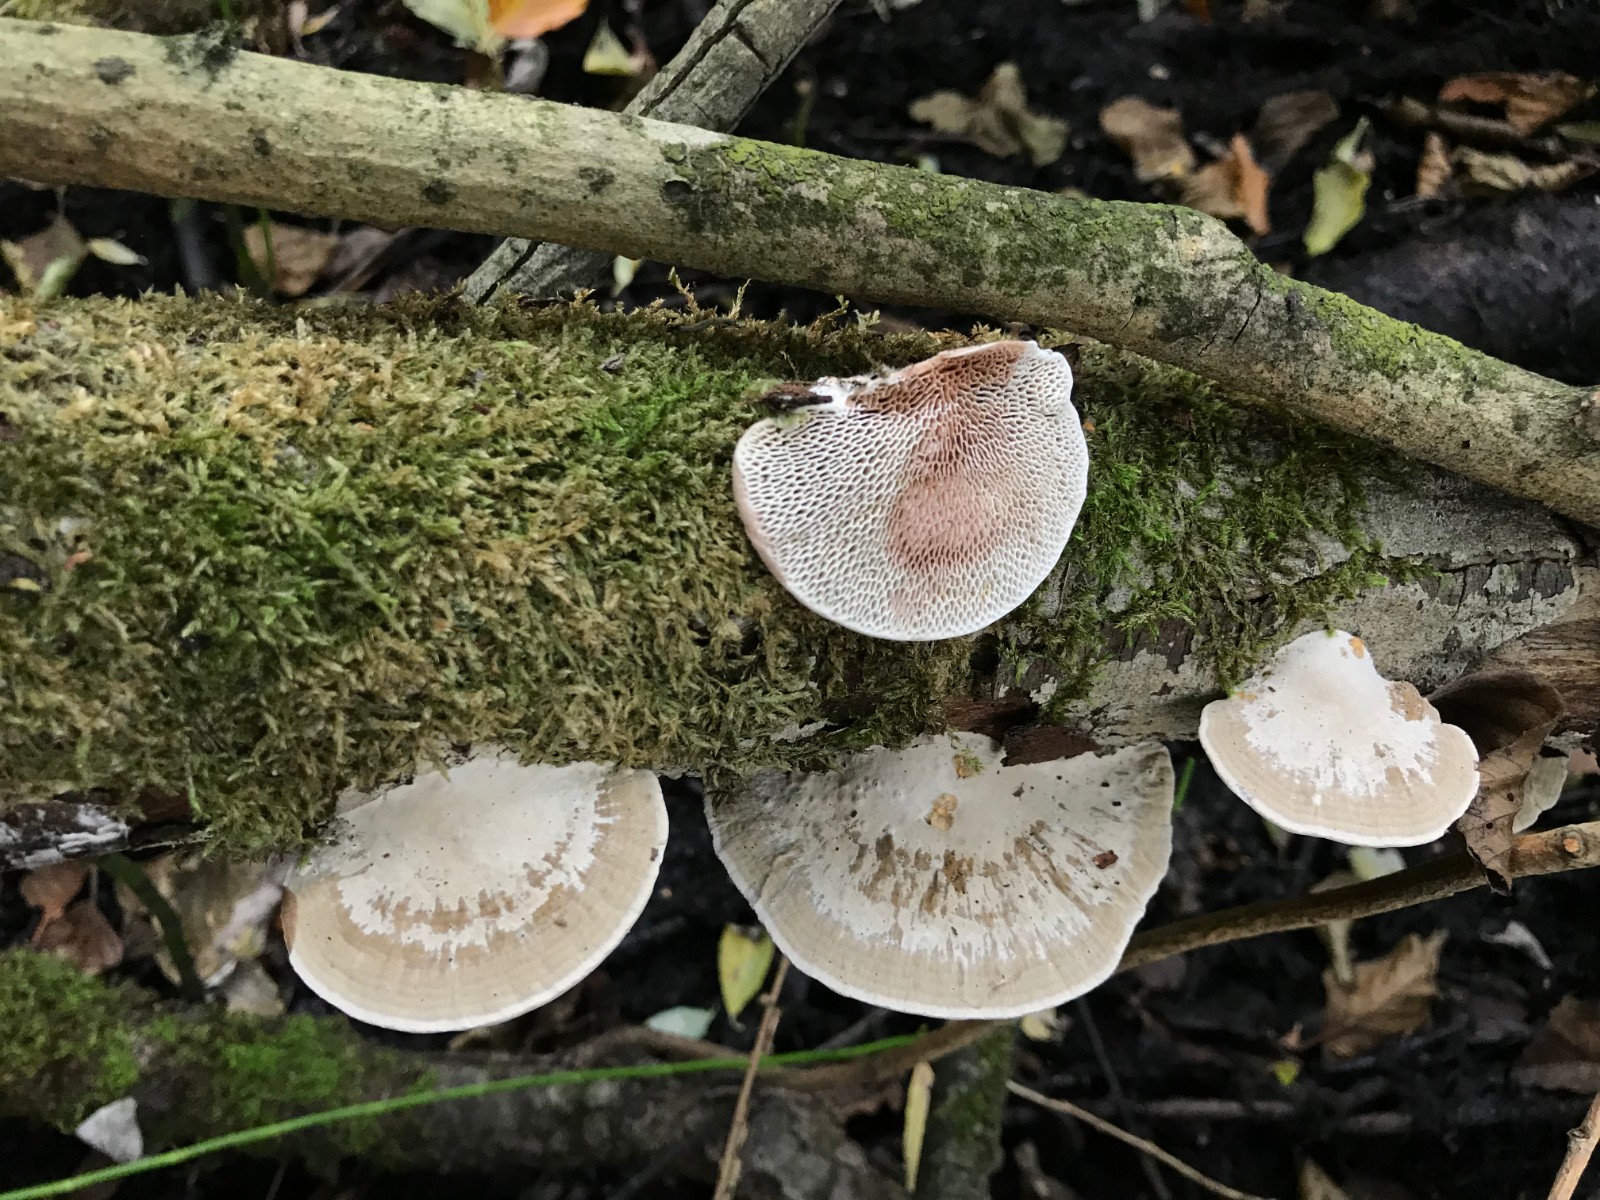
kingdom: Fungi
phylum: Basidiomycota
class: Agaricomycetes
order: Polyporales
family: Polyporaceae
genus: Daedaleopsis
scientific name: Daedaleopsis confragosa
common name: rødmende læderporesvamp
